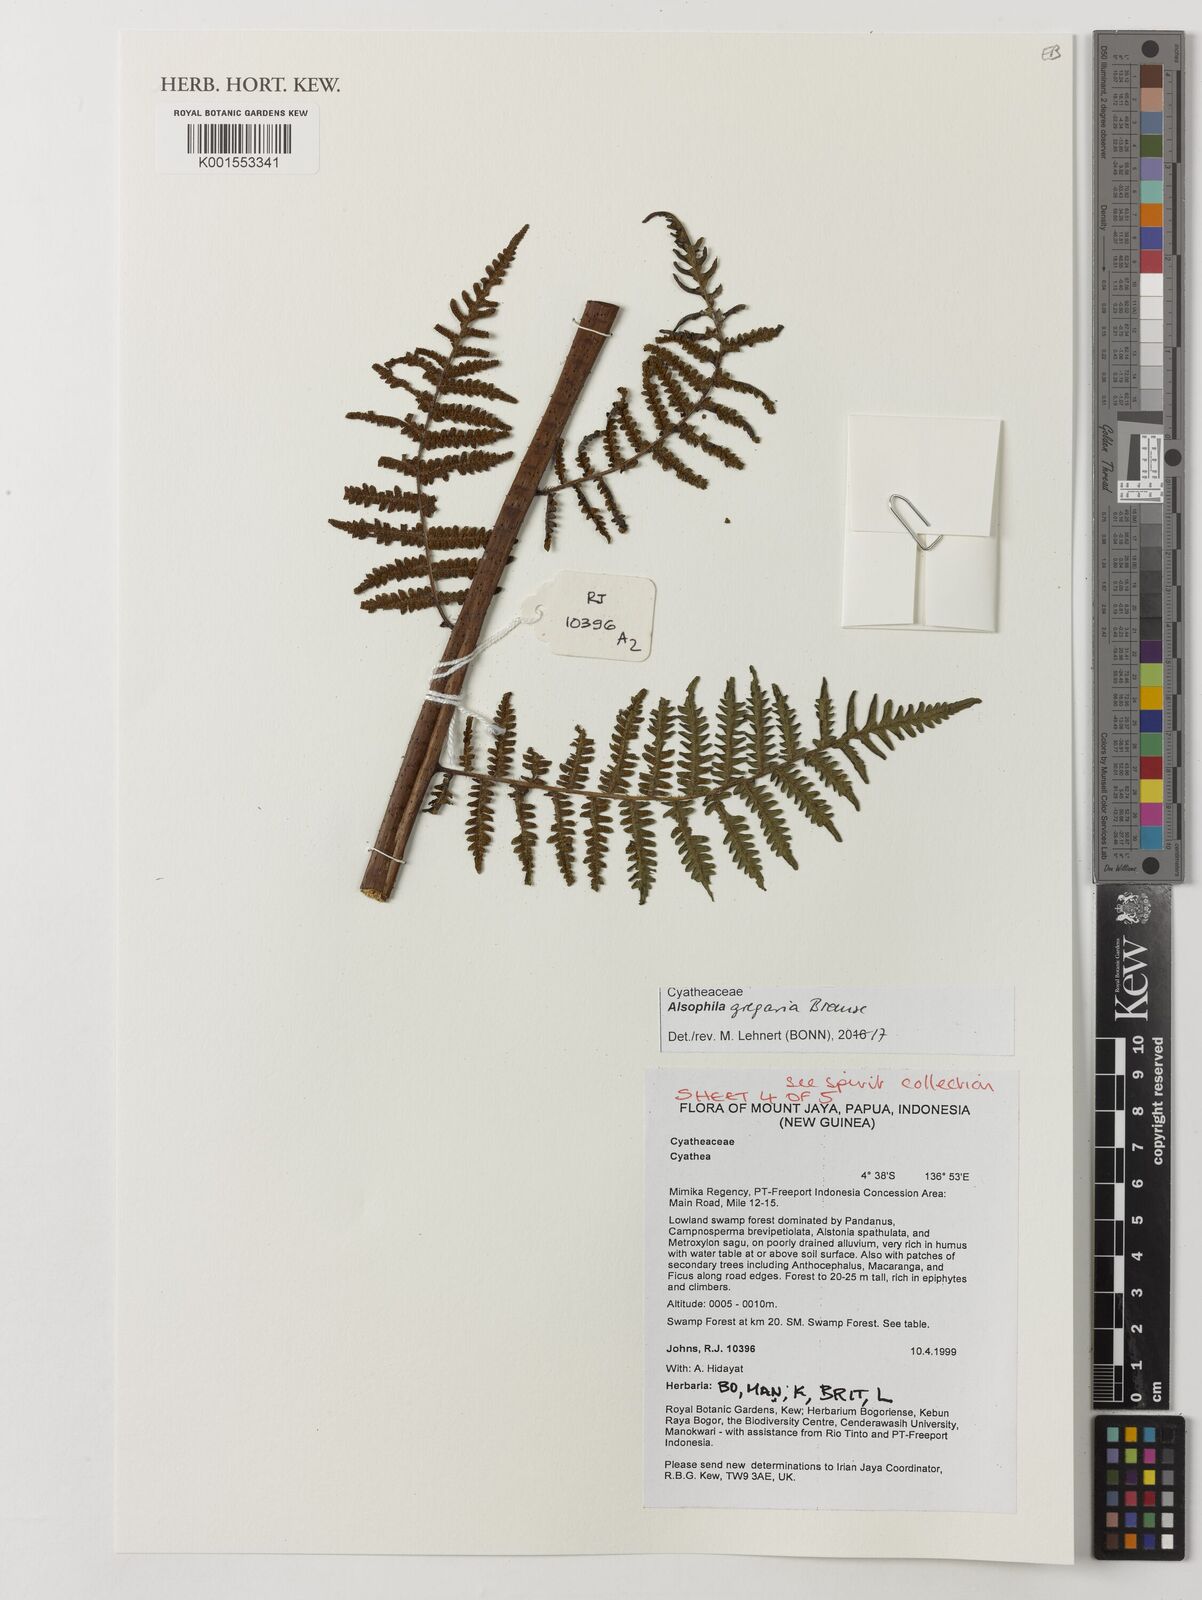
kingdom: Plantae
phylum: Tracheophyta
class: Polypodiopsida
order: Cyatheales
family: Cyatheaceae
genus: Alsophila
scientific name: Alsophila gregaria
